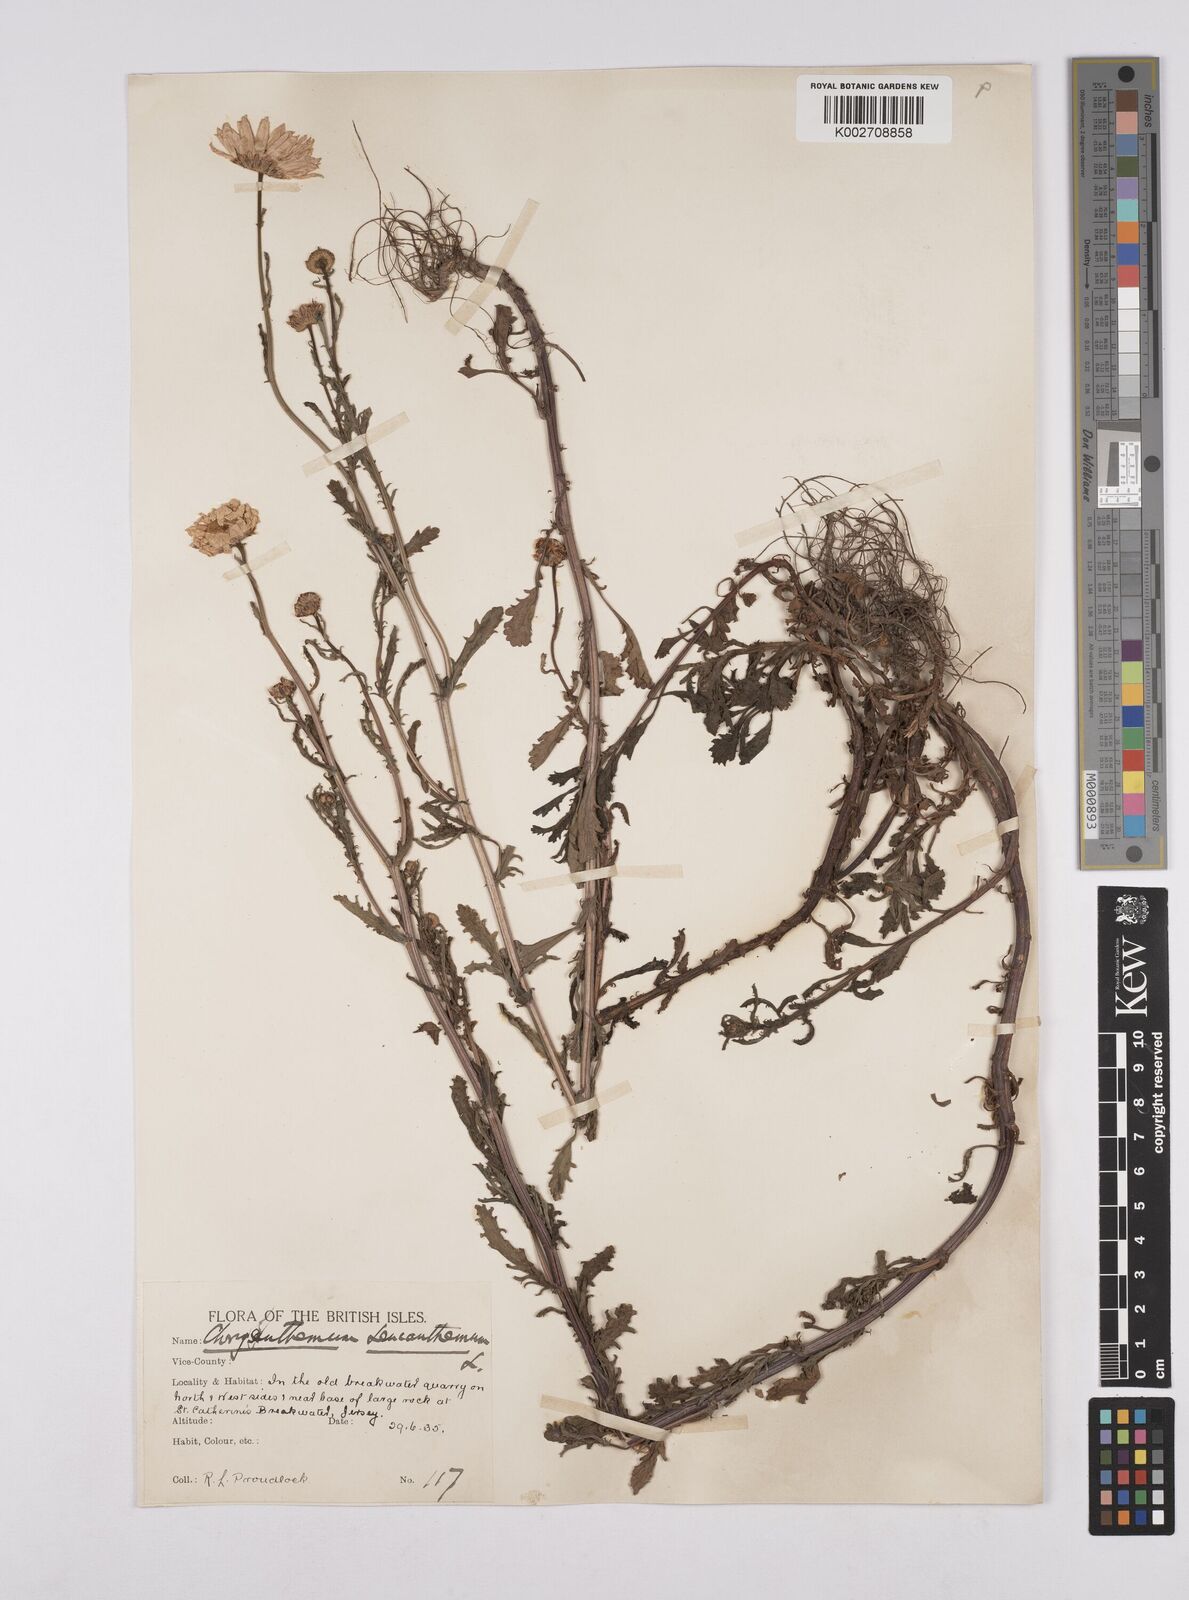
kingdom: Plantae
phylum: Tracheophyta
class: Magnoliopsida
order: Asterales
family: Asteraceae
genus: Leucanthemum
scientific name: Leucanthemum
